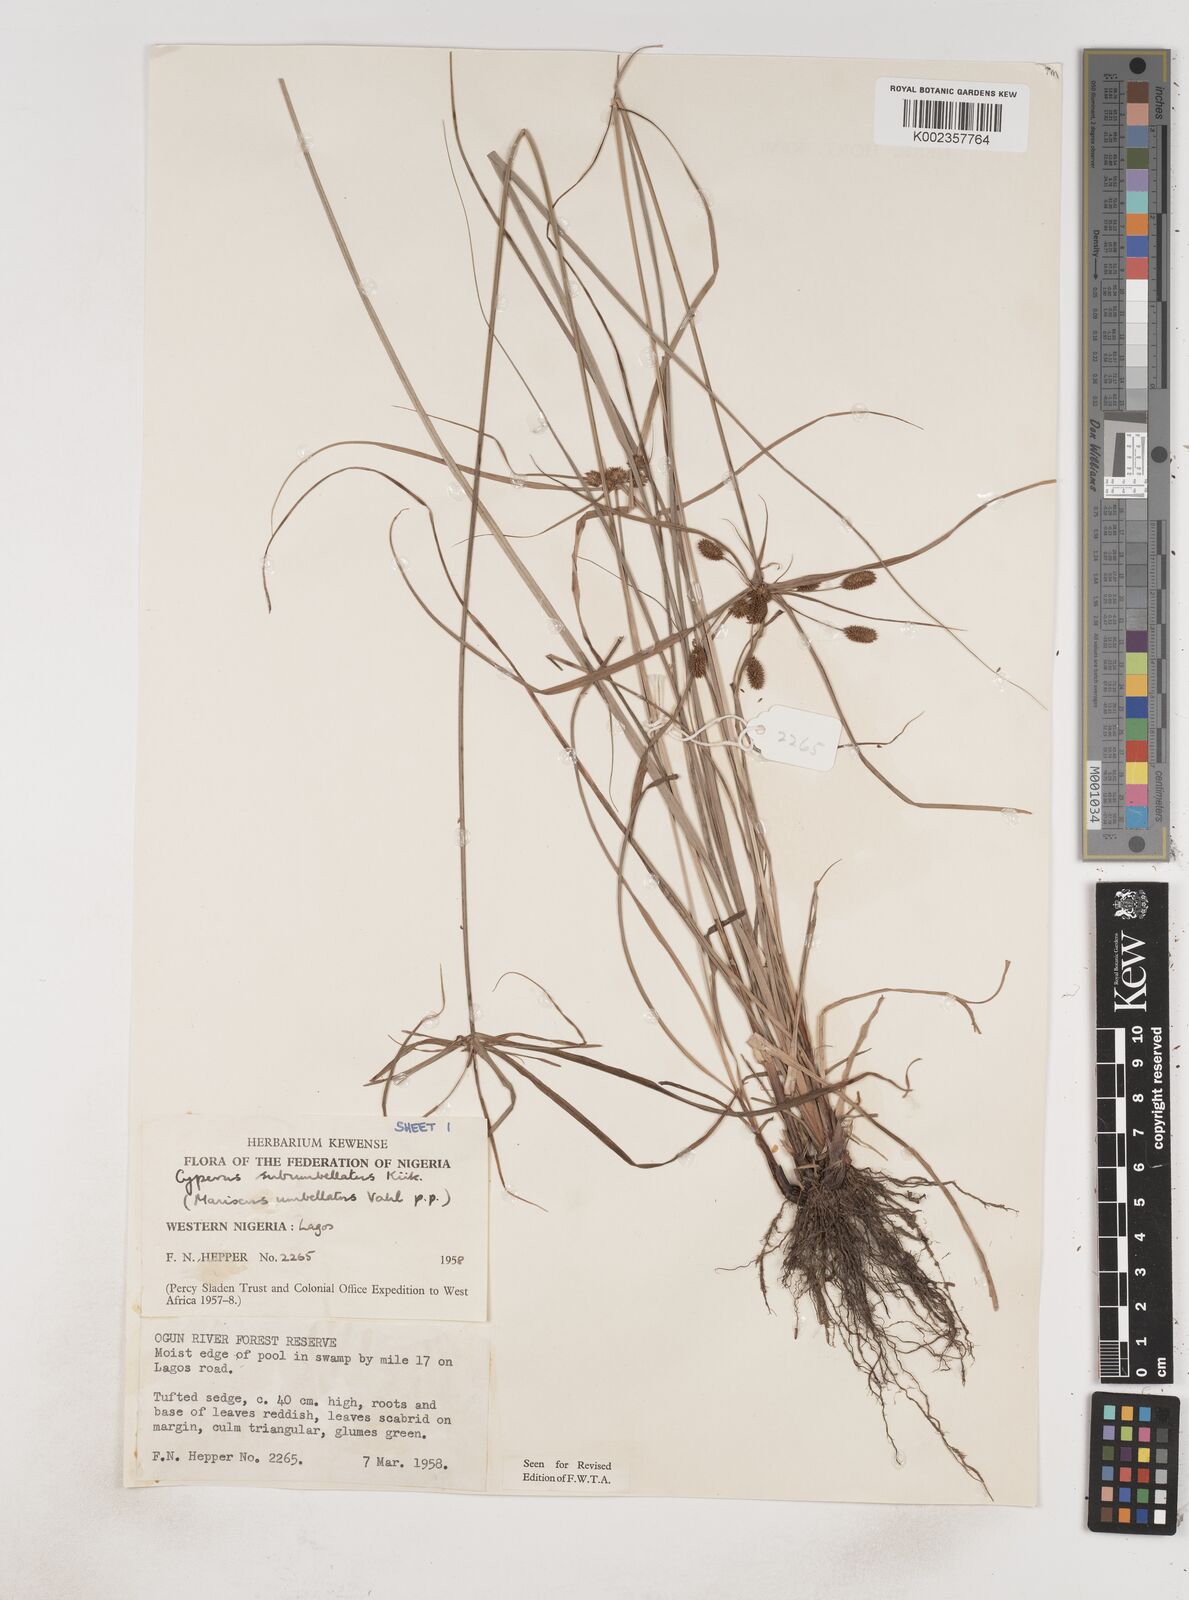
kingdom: Plantae
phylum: Tracheophyta
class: Liliopsida
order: Poales
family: Cyperaceae
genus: Cyperus
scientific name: Cyperus sublimis
